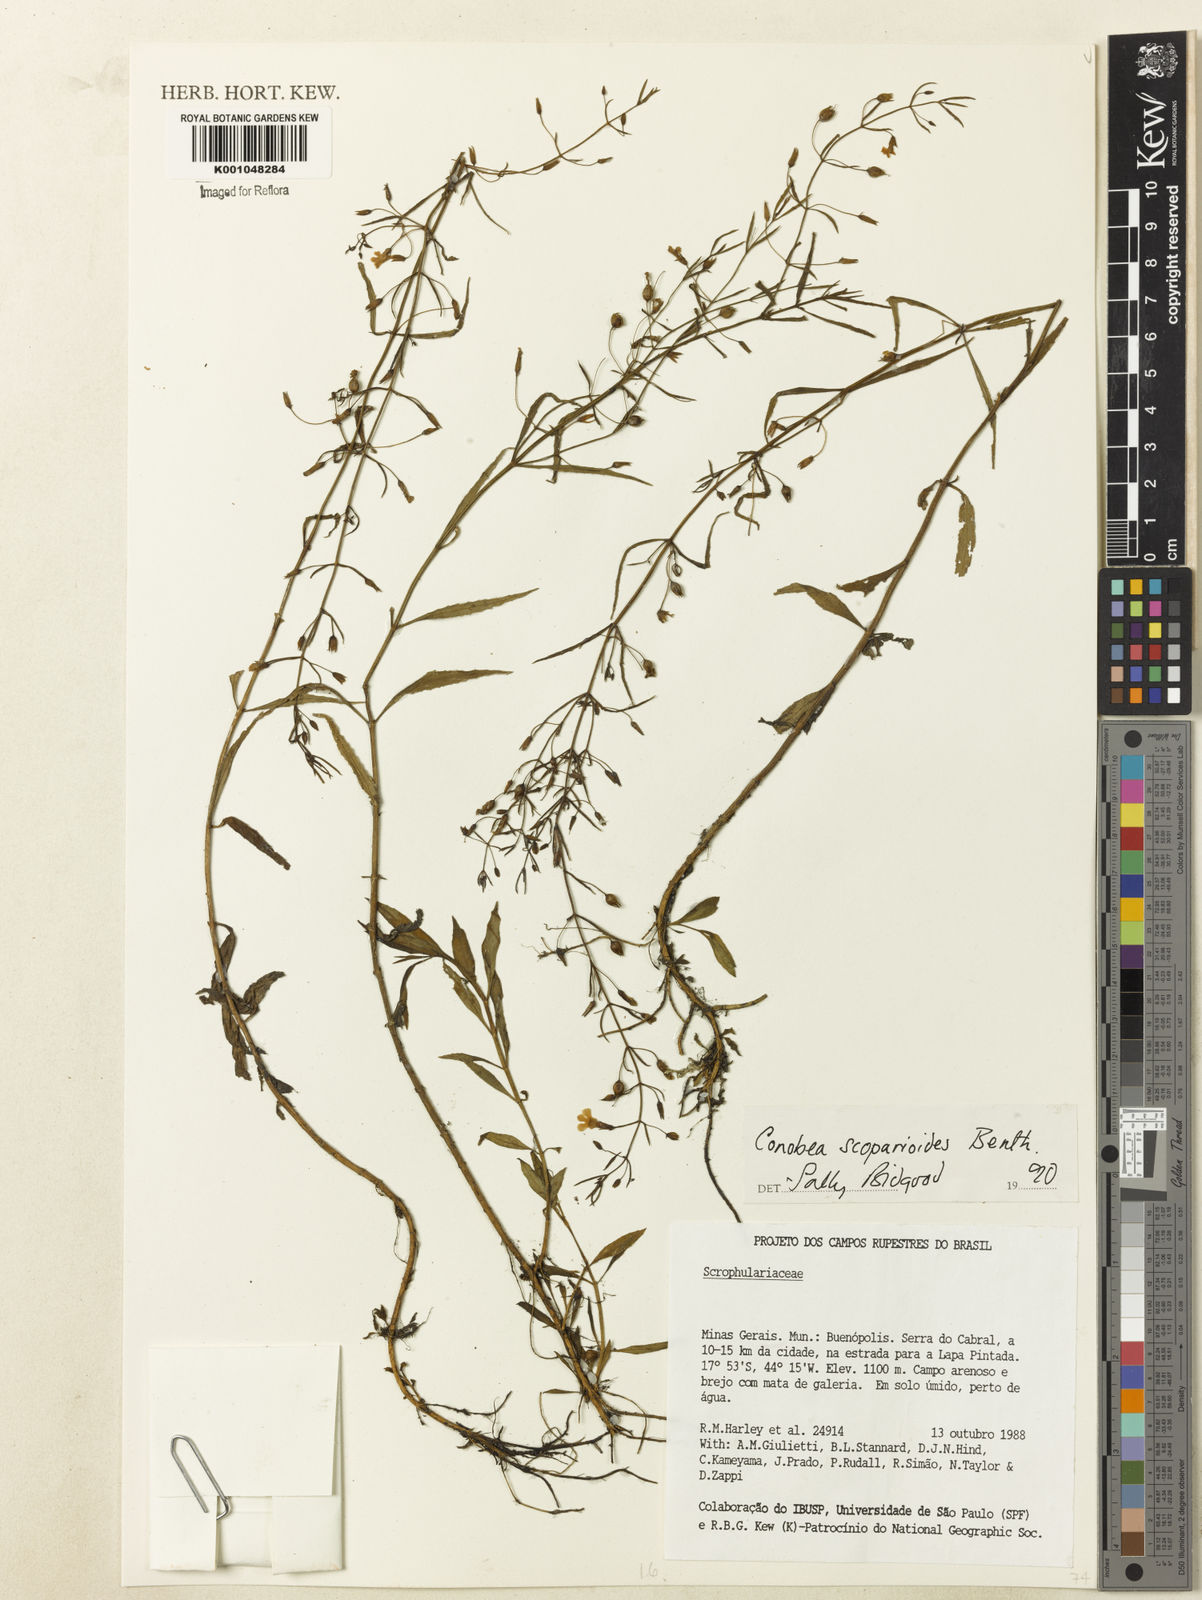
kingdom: Plantae
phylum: Tracheophyta
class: Magnoliopsida
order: Lamiales
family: Plantaginaceae
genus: Conobea
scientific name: Conobea scoparioides
